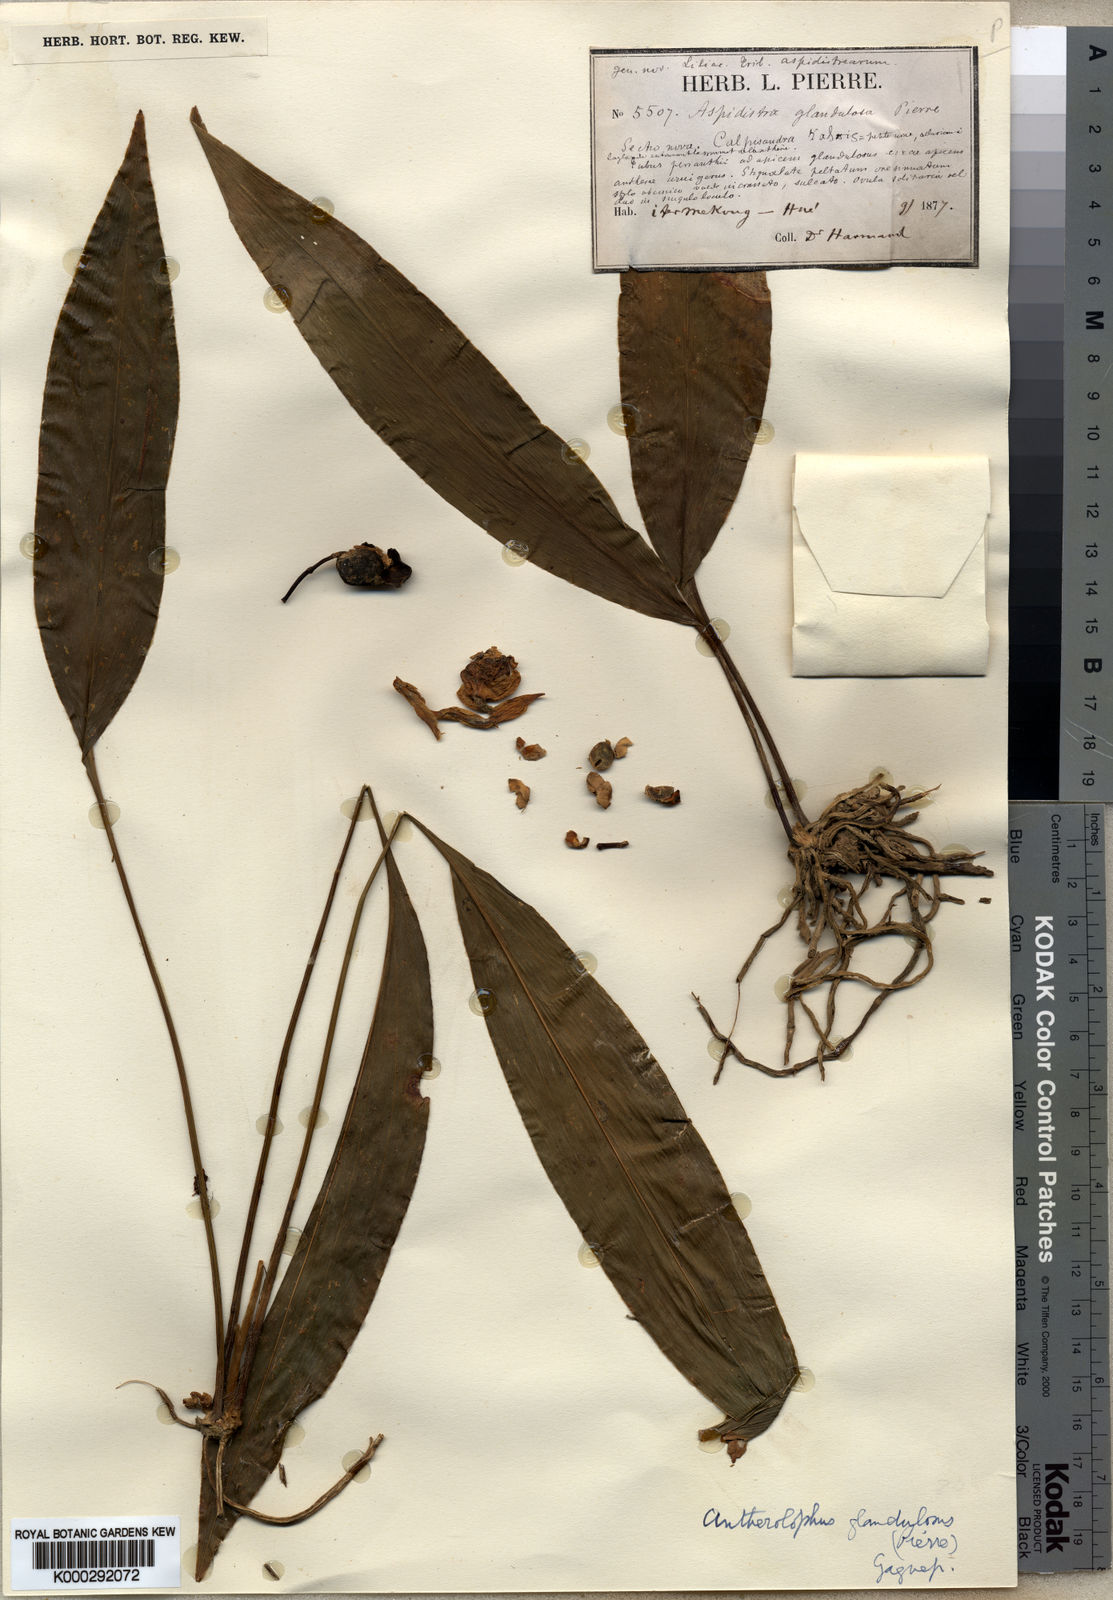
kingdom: Plantae
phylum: Tracheophyta
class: Liliopsida
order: Asparagales
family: Asparagaceae
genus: Aspidistra
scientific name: Aspidistra glandulosa
